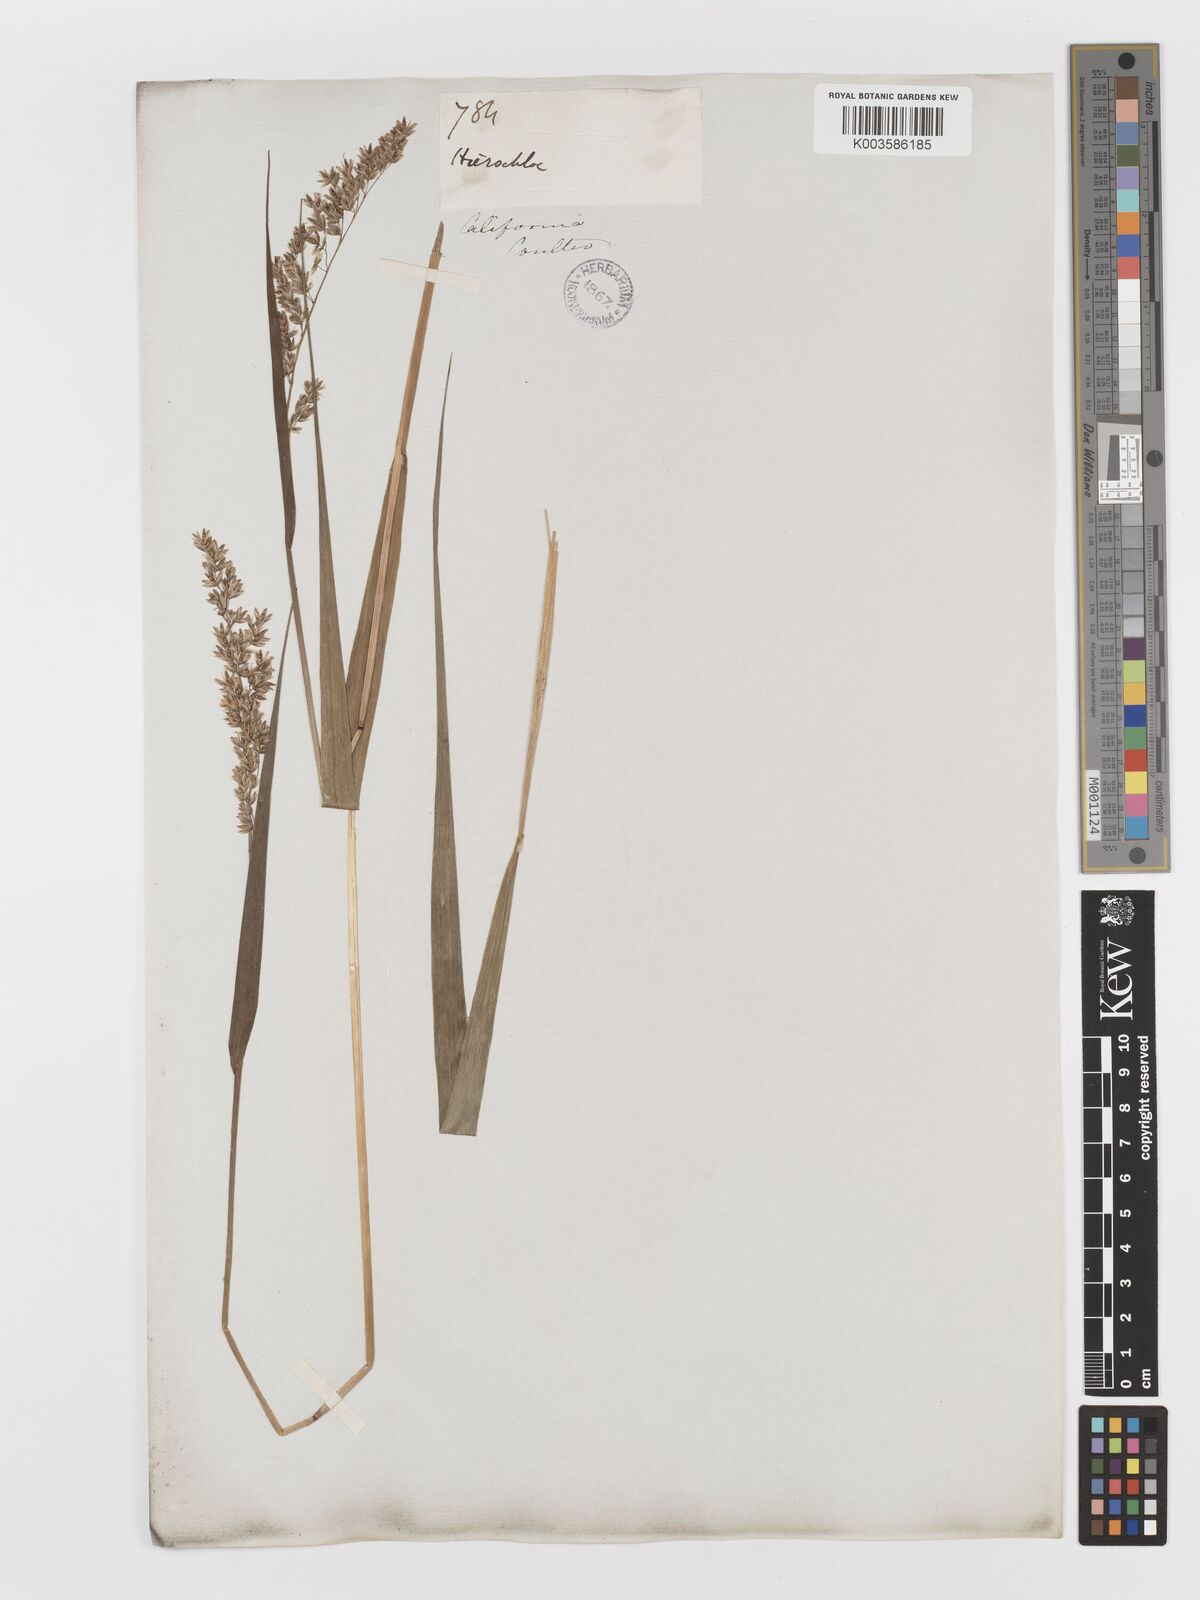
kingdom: Plantae
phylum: Tracheophyta
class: Liliopsida
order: Poales
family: Poaceae
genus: Anthoxanthum
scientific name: Anthoxanthum occidentale
